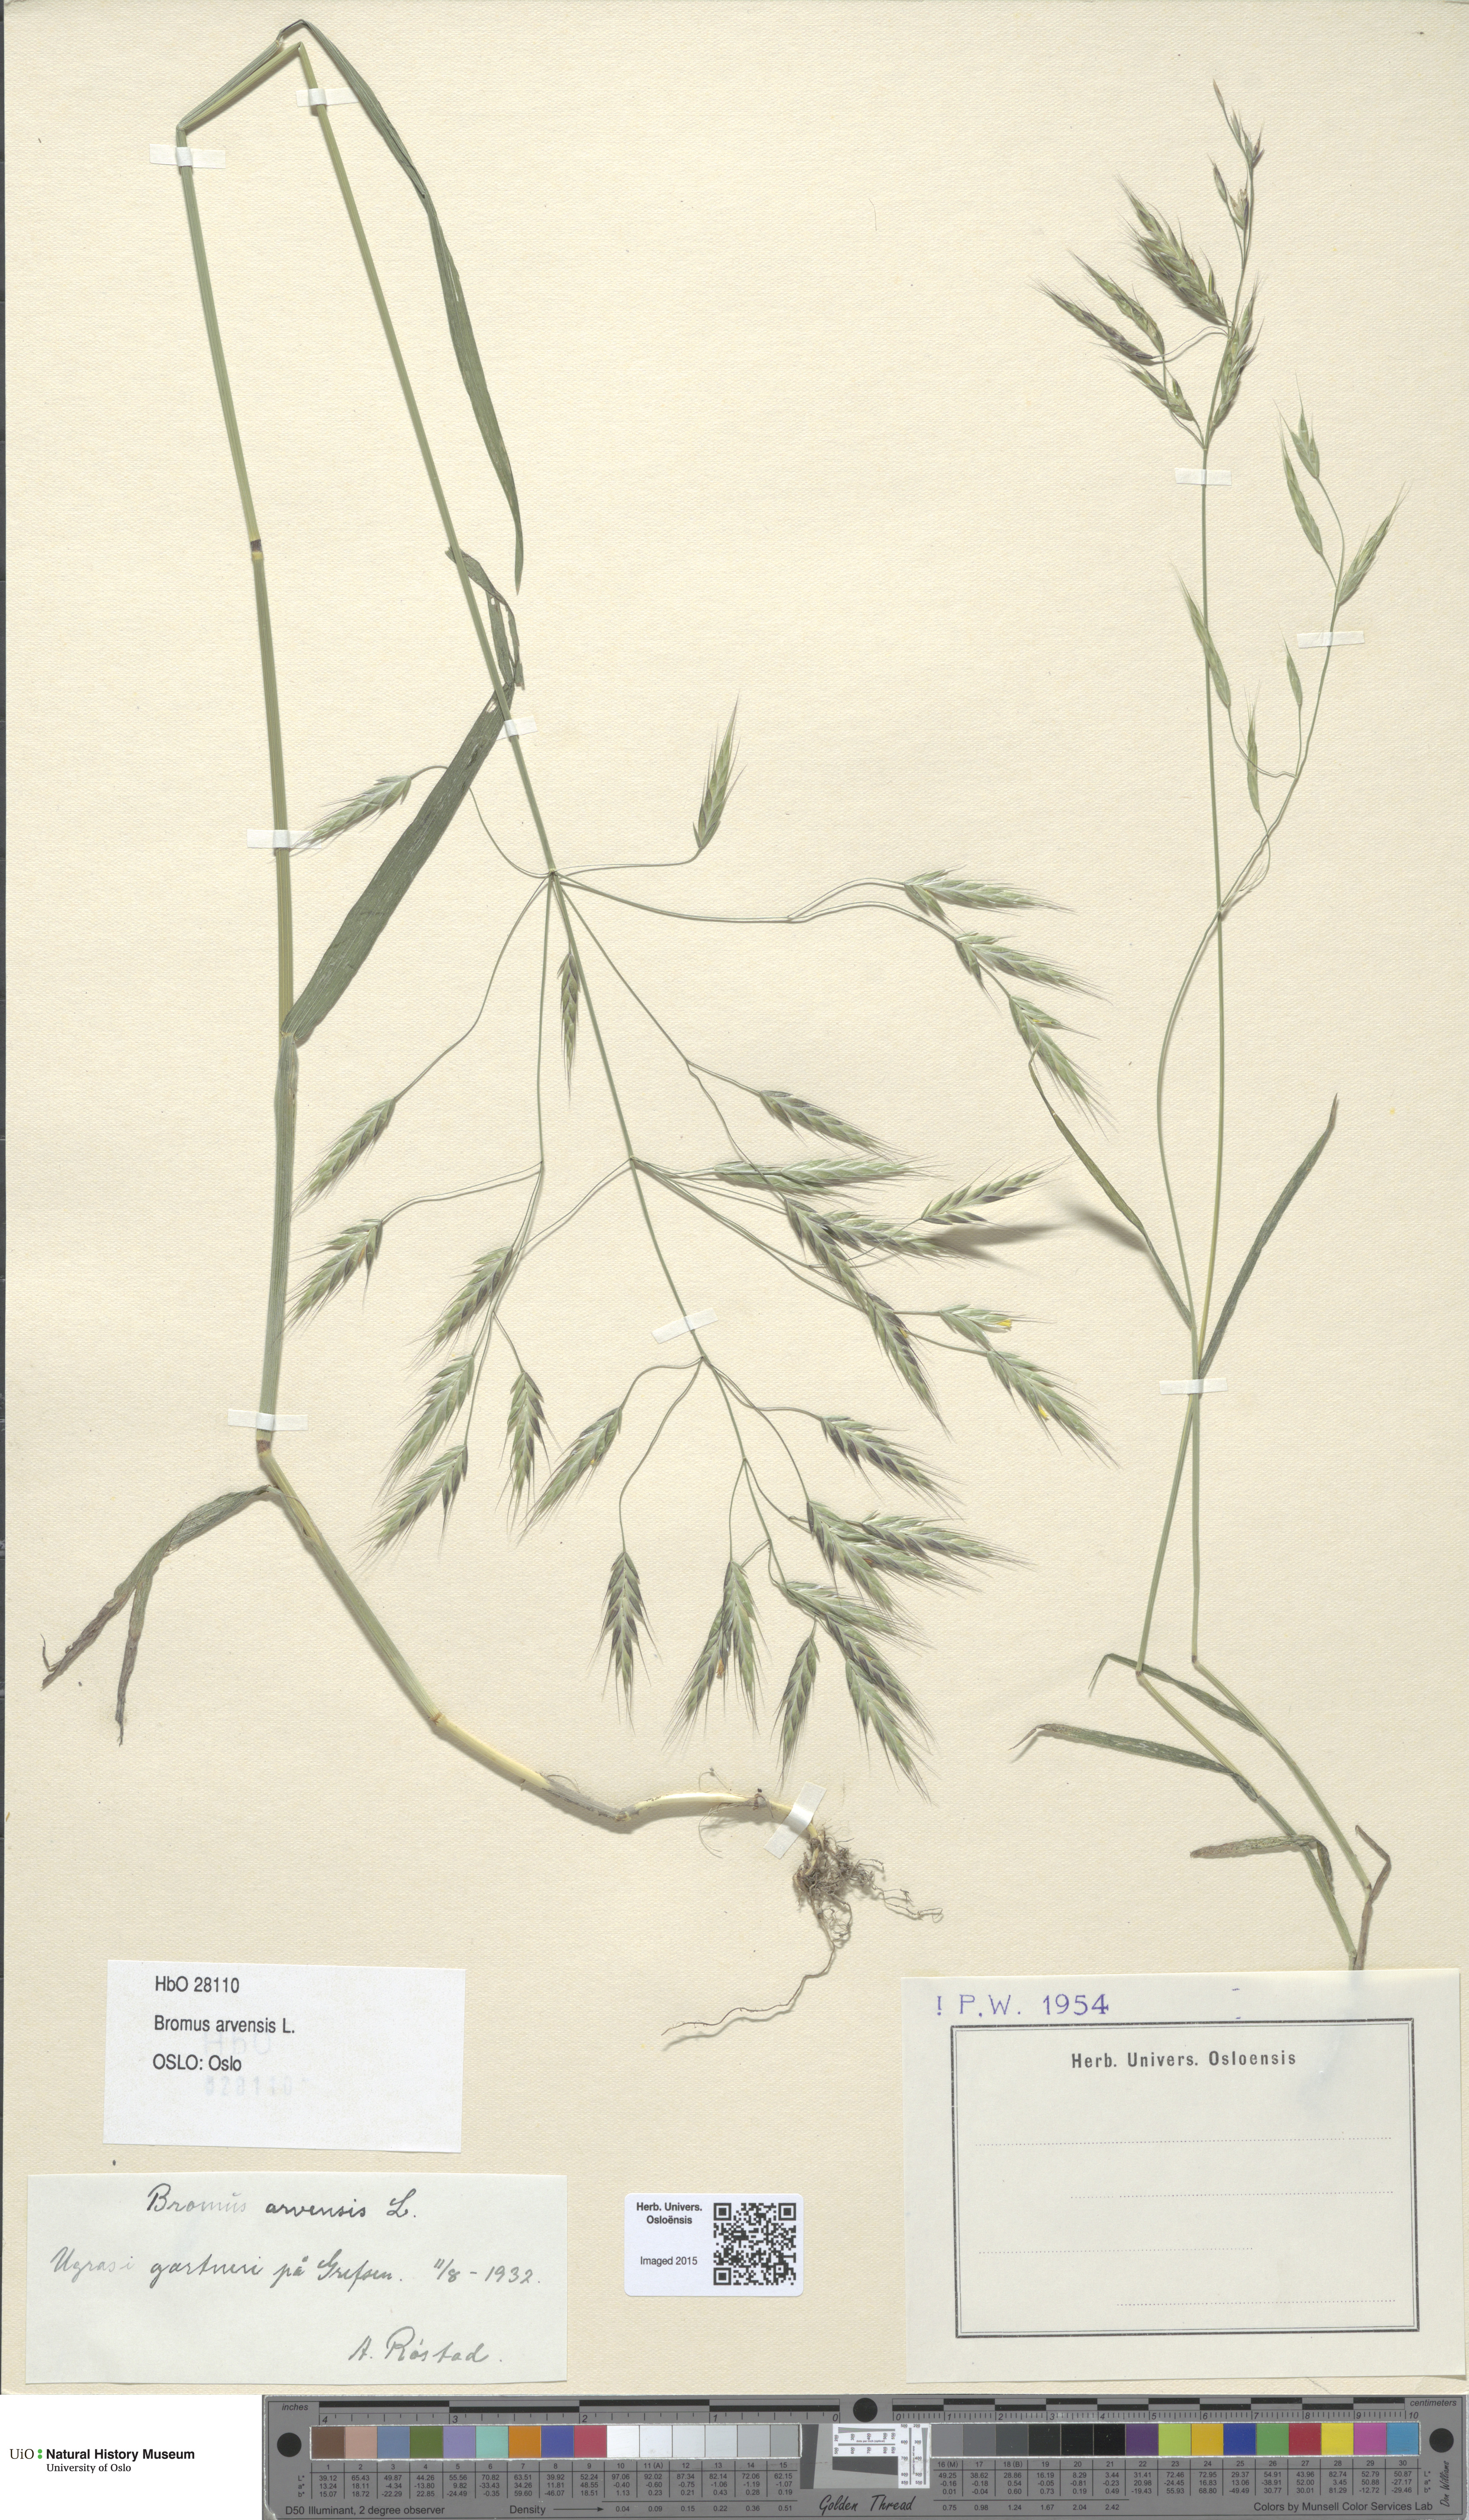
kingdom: Plantae
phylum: Tracheophyta
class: Liliopsida
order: Poales
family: Poaceae
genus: Bromus
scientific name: Bromus arvensis
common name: Field brome
